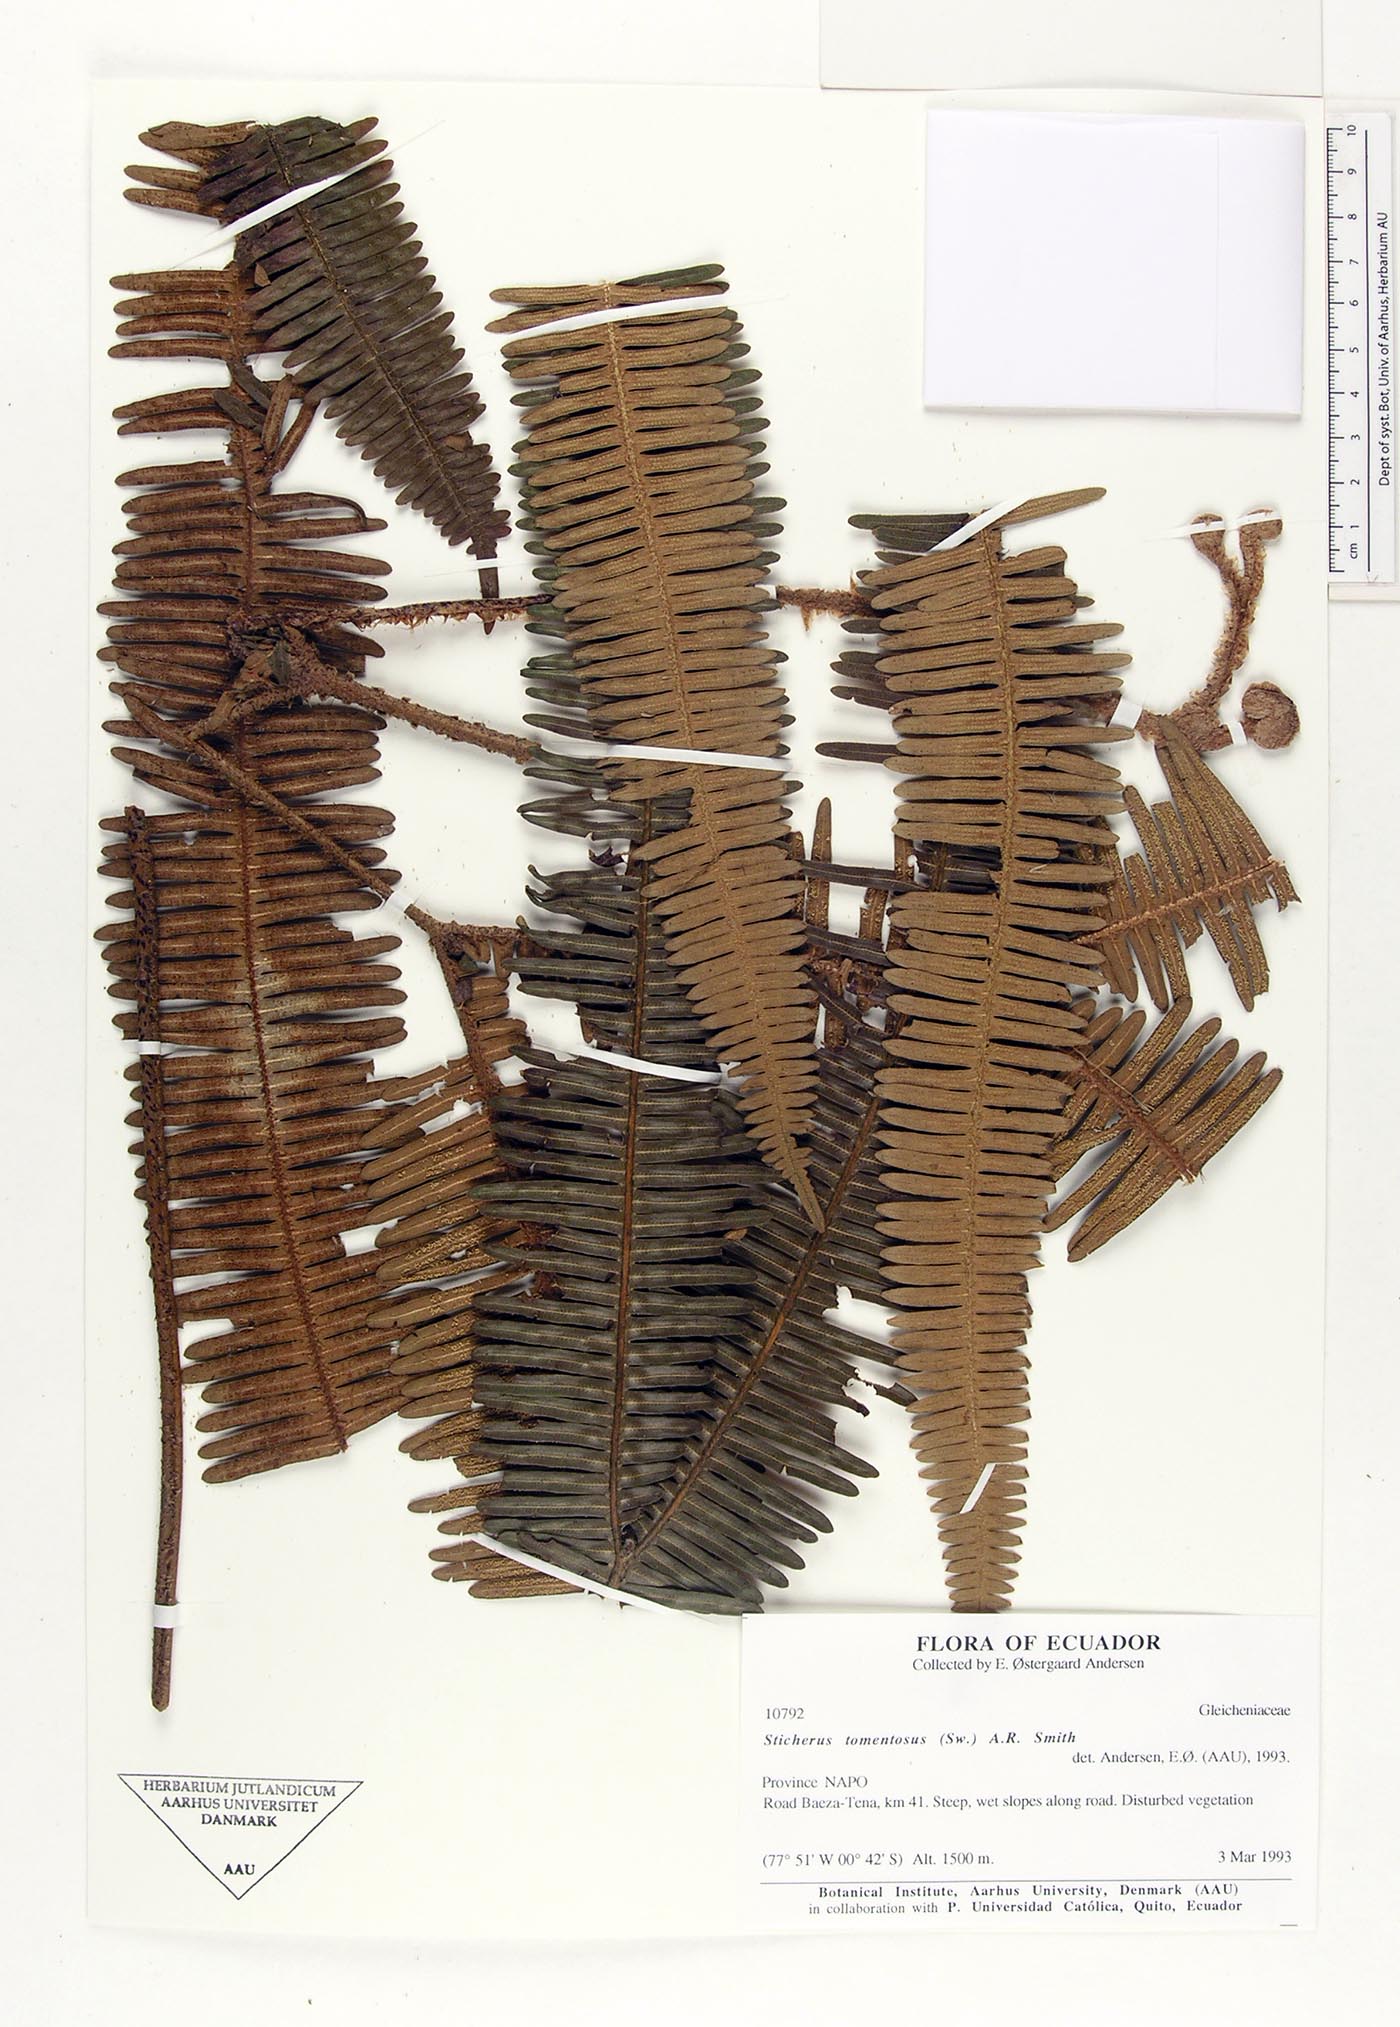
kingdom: Plantae
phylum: Tracheophyta
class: Polypodiopsida
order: Gleicheniales
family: Gleicheniaceae
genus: Sticherus
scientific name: Sticherus tomentosus
